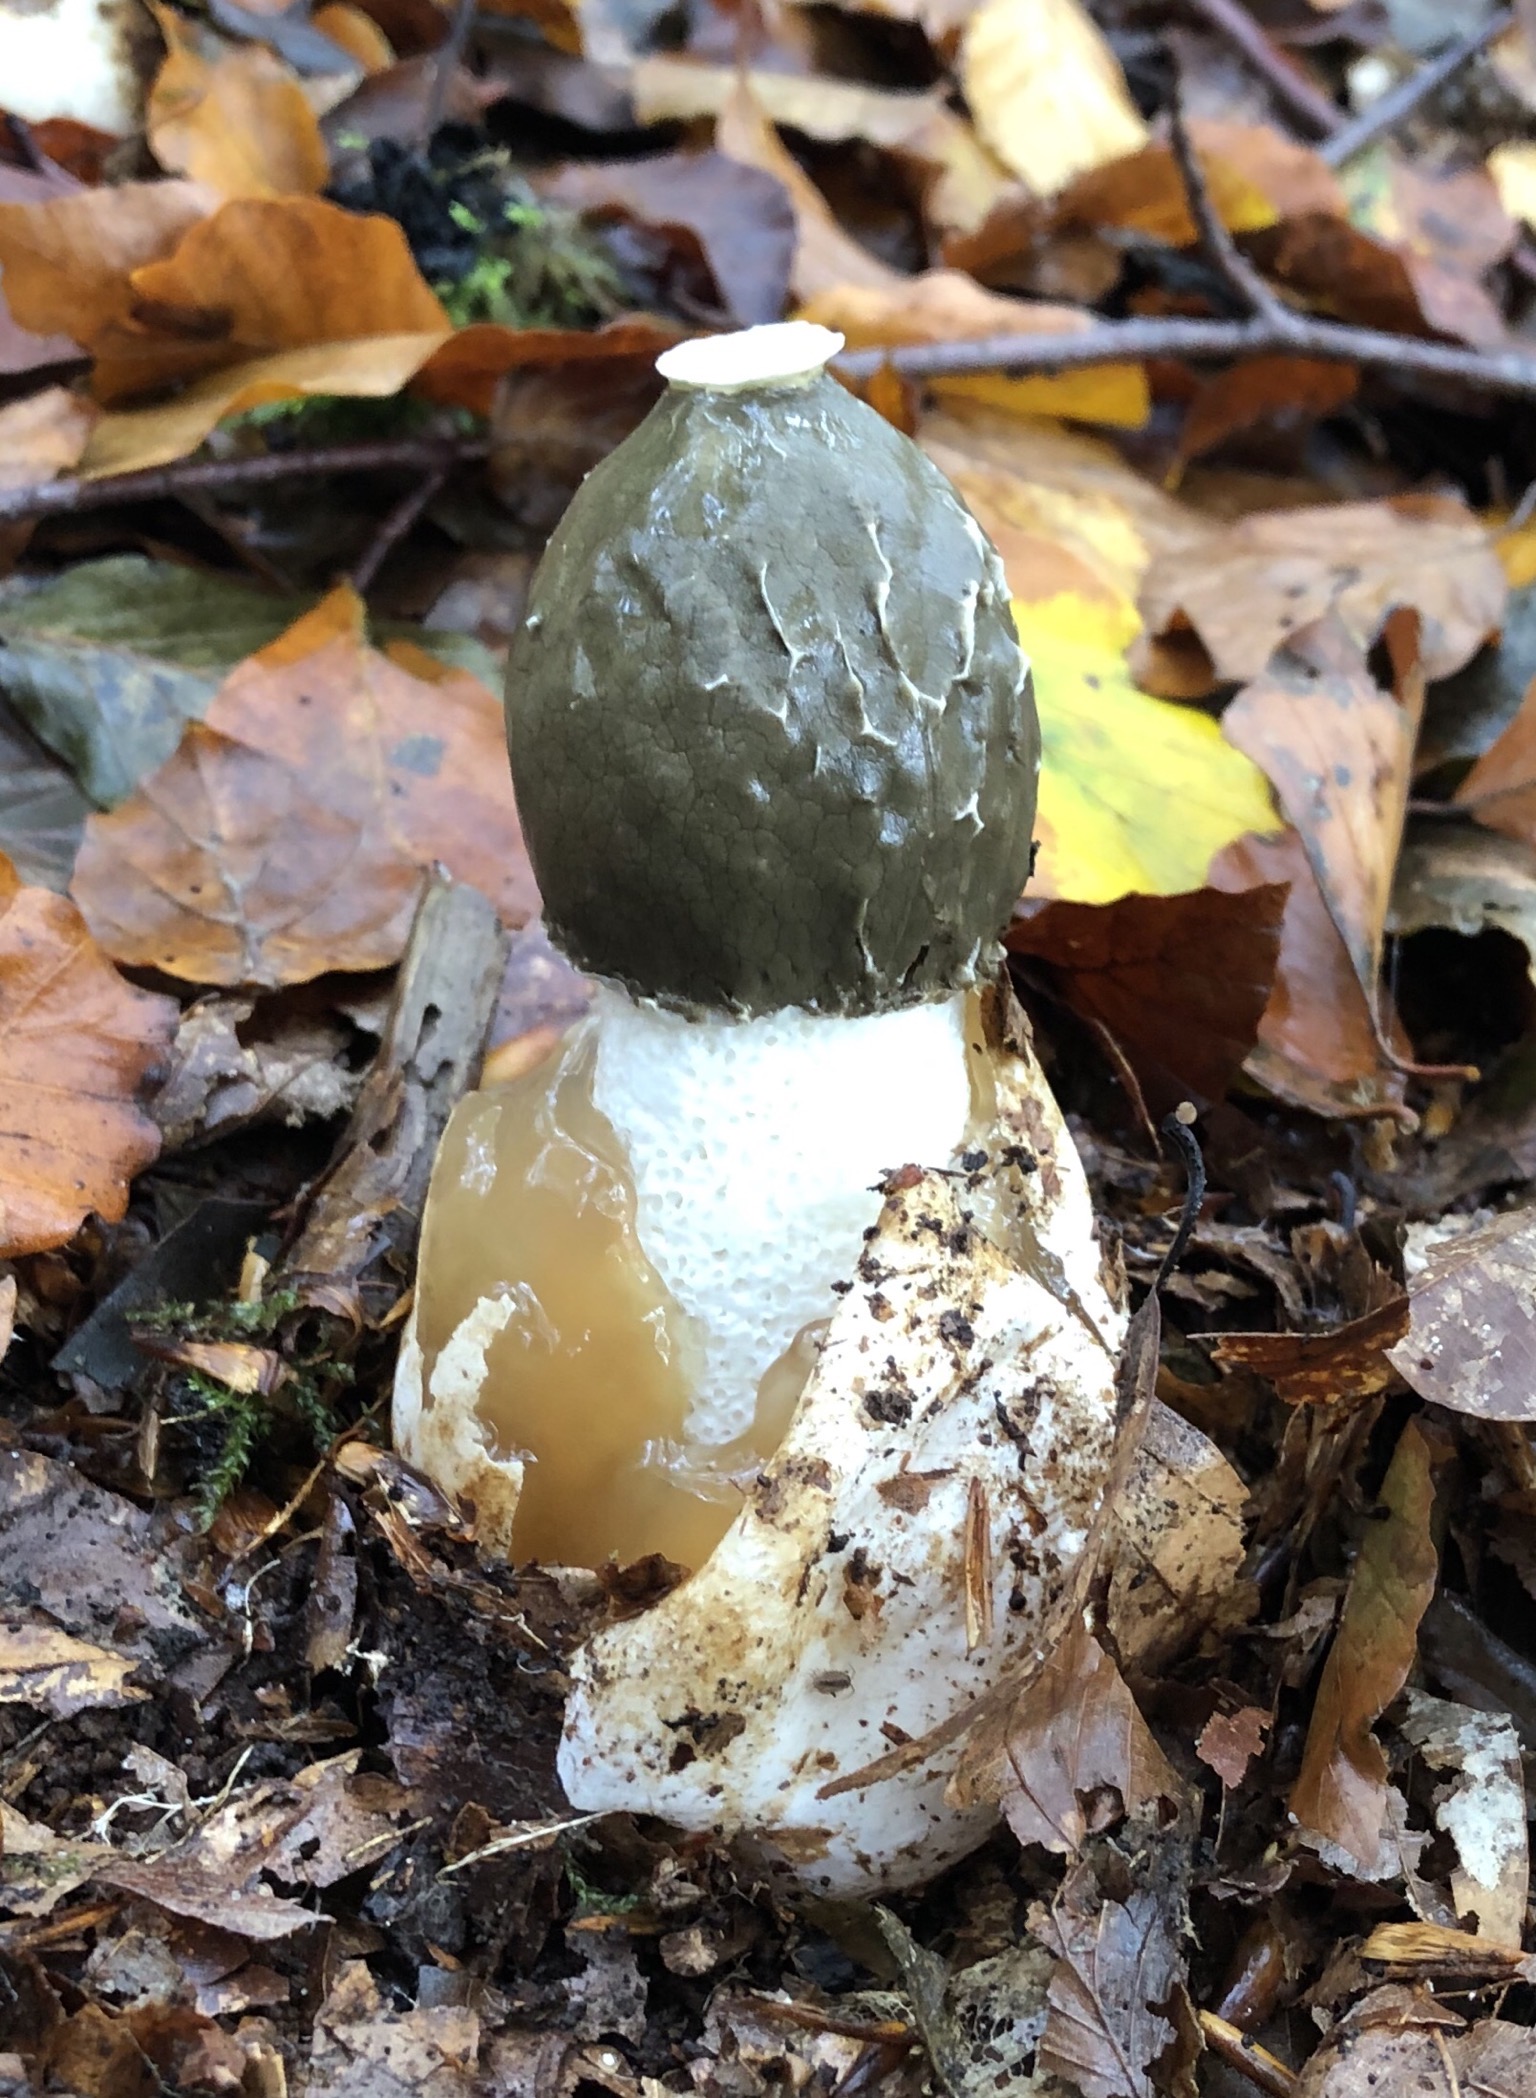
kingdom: Fungi
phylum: Basidiomycota
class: Agaricomycetes
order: Phallales
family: Phallaceae
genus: Phallus
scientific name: Phallus impudicus
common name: almindelig stinksvamp
